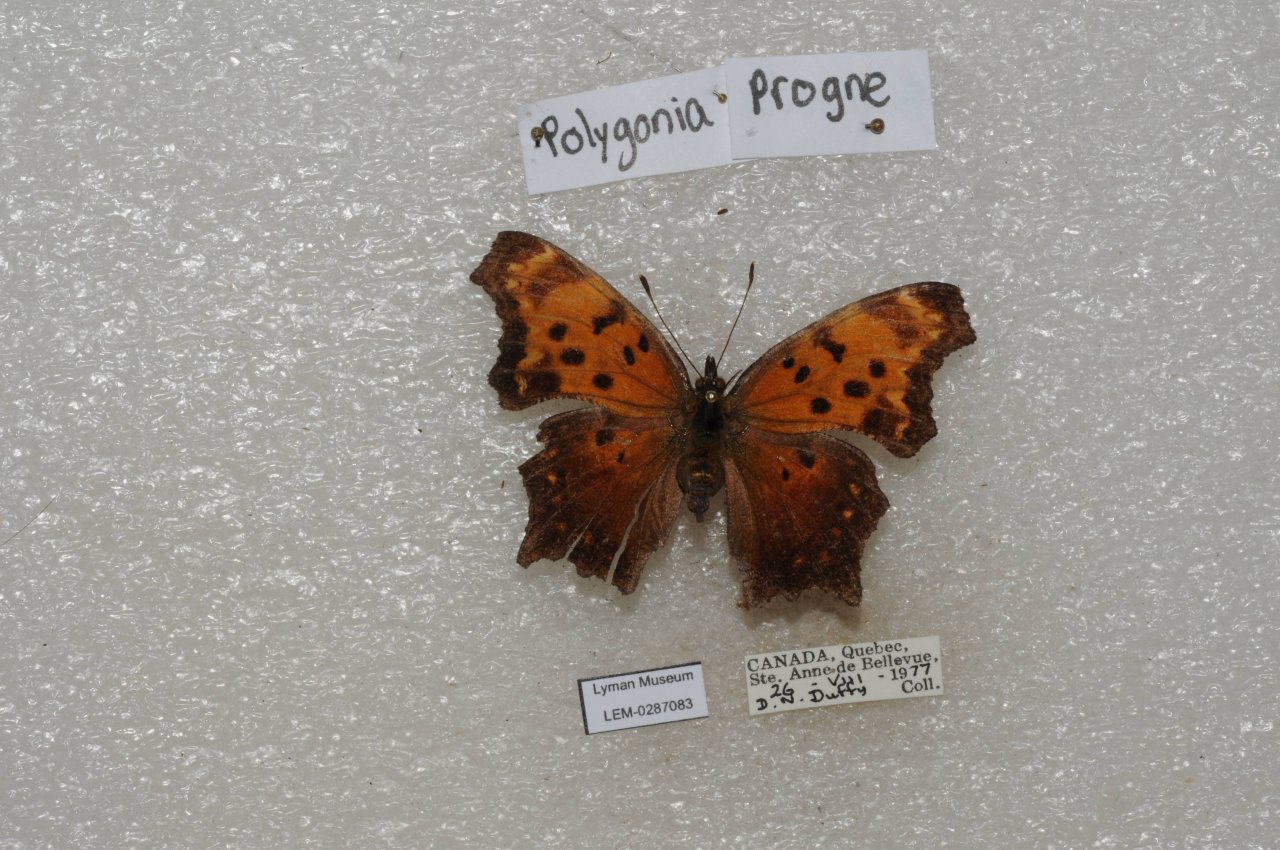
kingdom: Animalia
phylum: Arthropoda
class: Insecta
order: Lepidoptera
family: Nymphalidae
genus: Polygonia
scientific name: Polygonia progne
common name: Gray Comma
